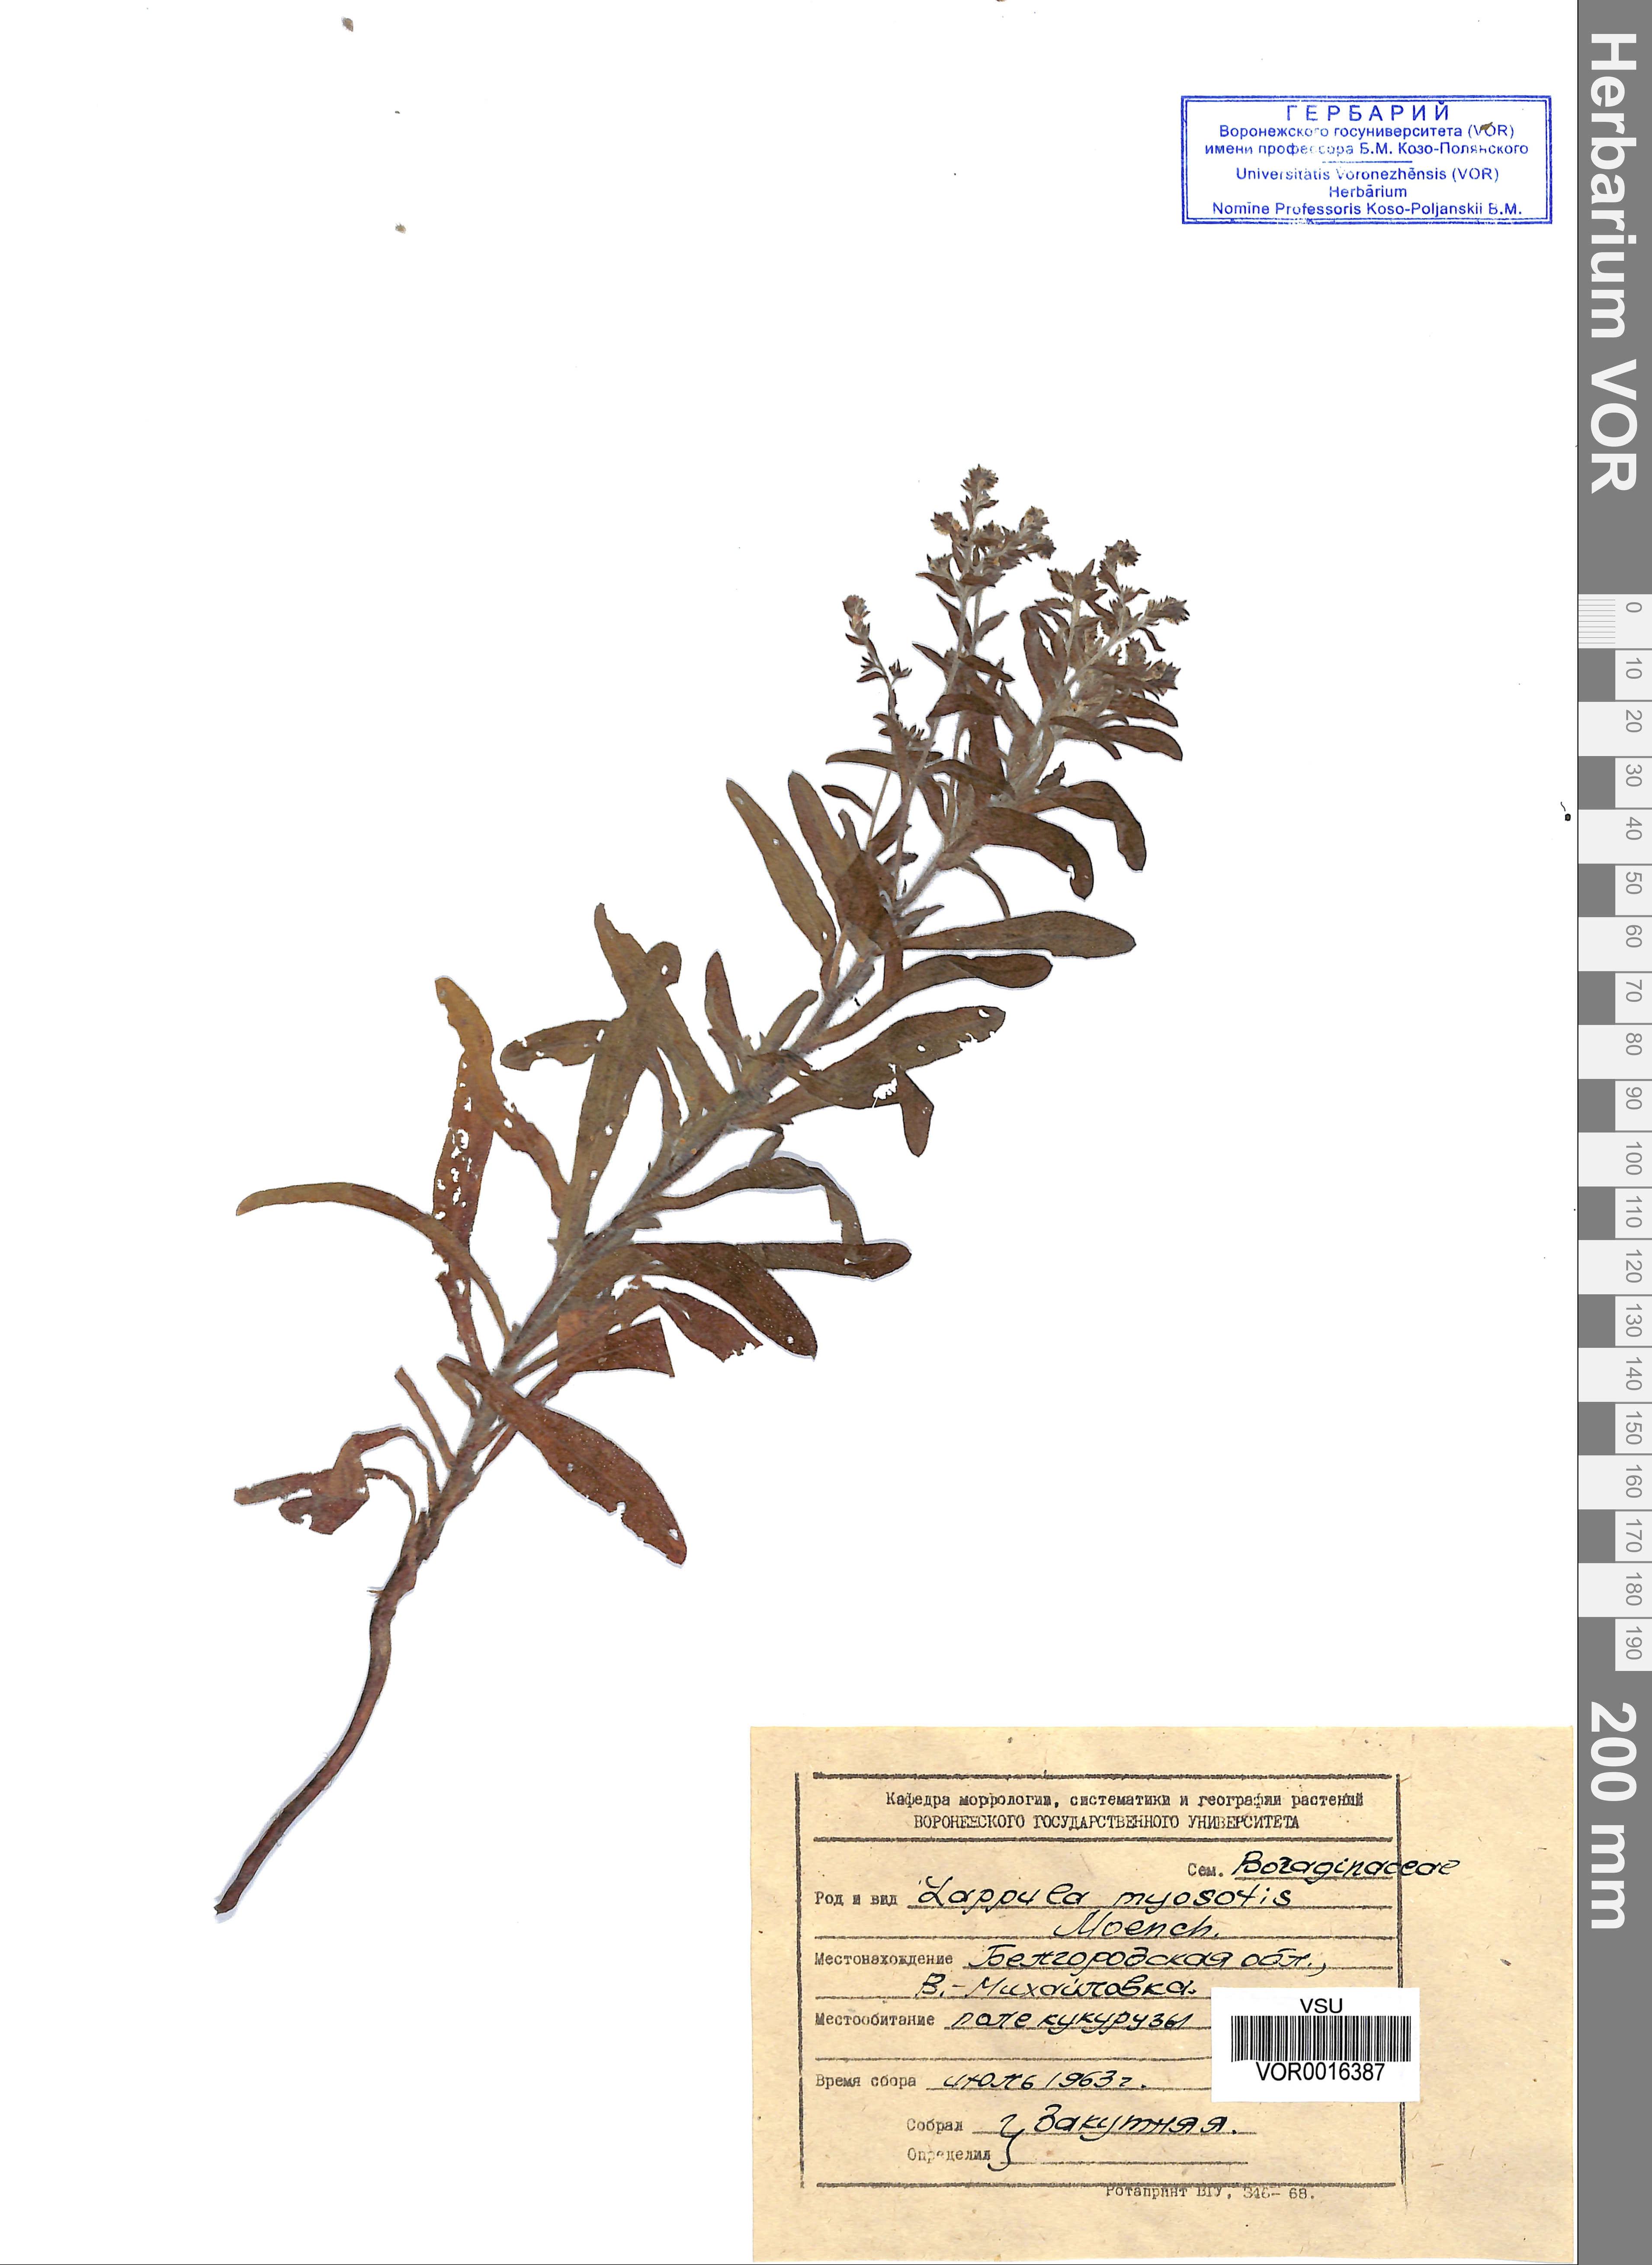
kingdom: Plantae
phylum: Tracheophyta
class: Magnoliopsida
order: Boraginales
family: Boraginaceae
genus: Lappula
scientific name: Lappula squarrosa
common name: European stickseed
